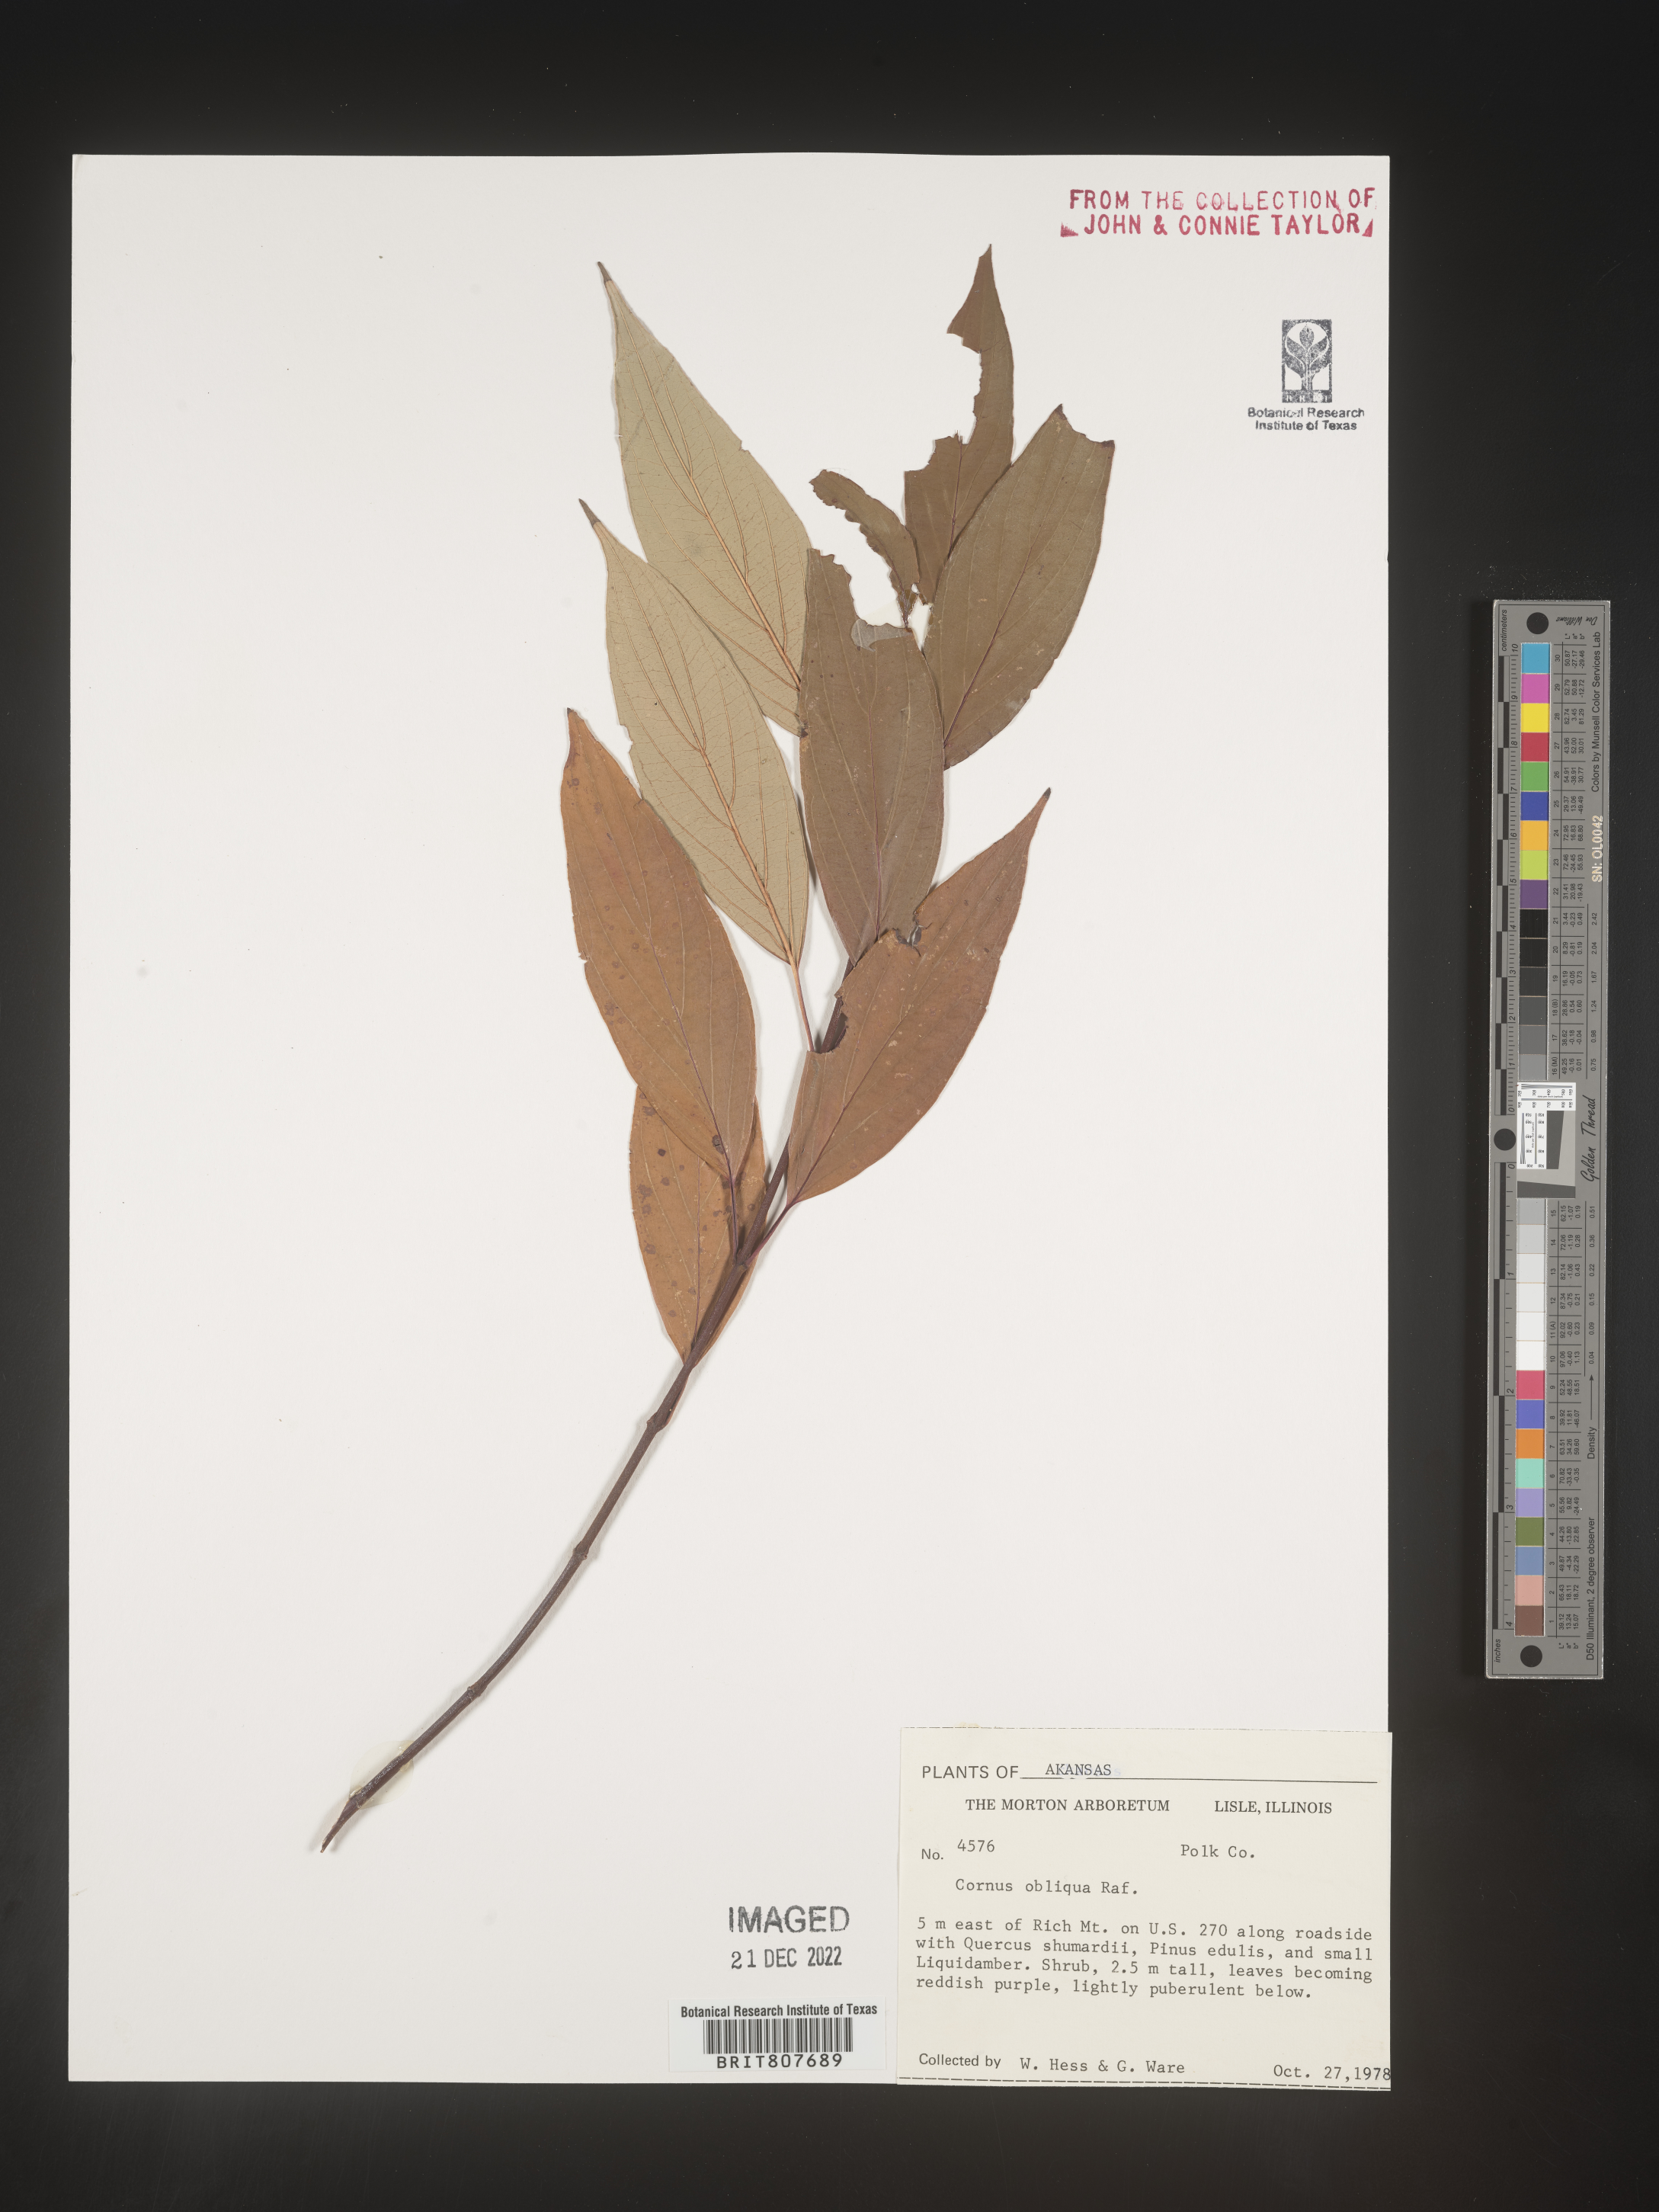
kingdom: Plantae
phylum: Tracheophyta
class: Magnoliopsida
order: Cornales
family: Cornaceae
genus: Cornus
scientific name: Cornus obliqua
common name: Pale dogwood
